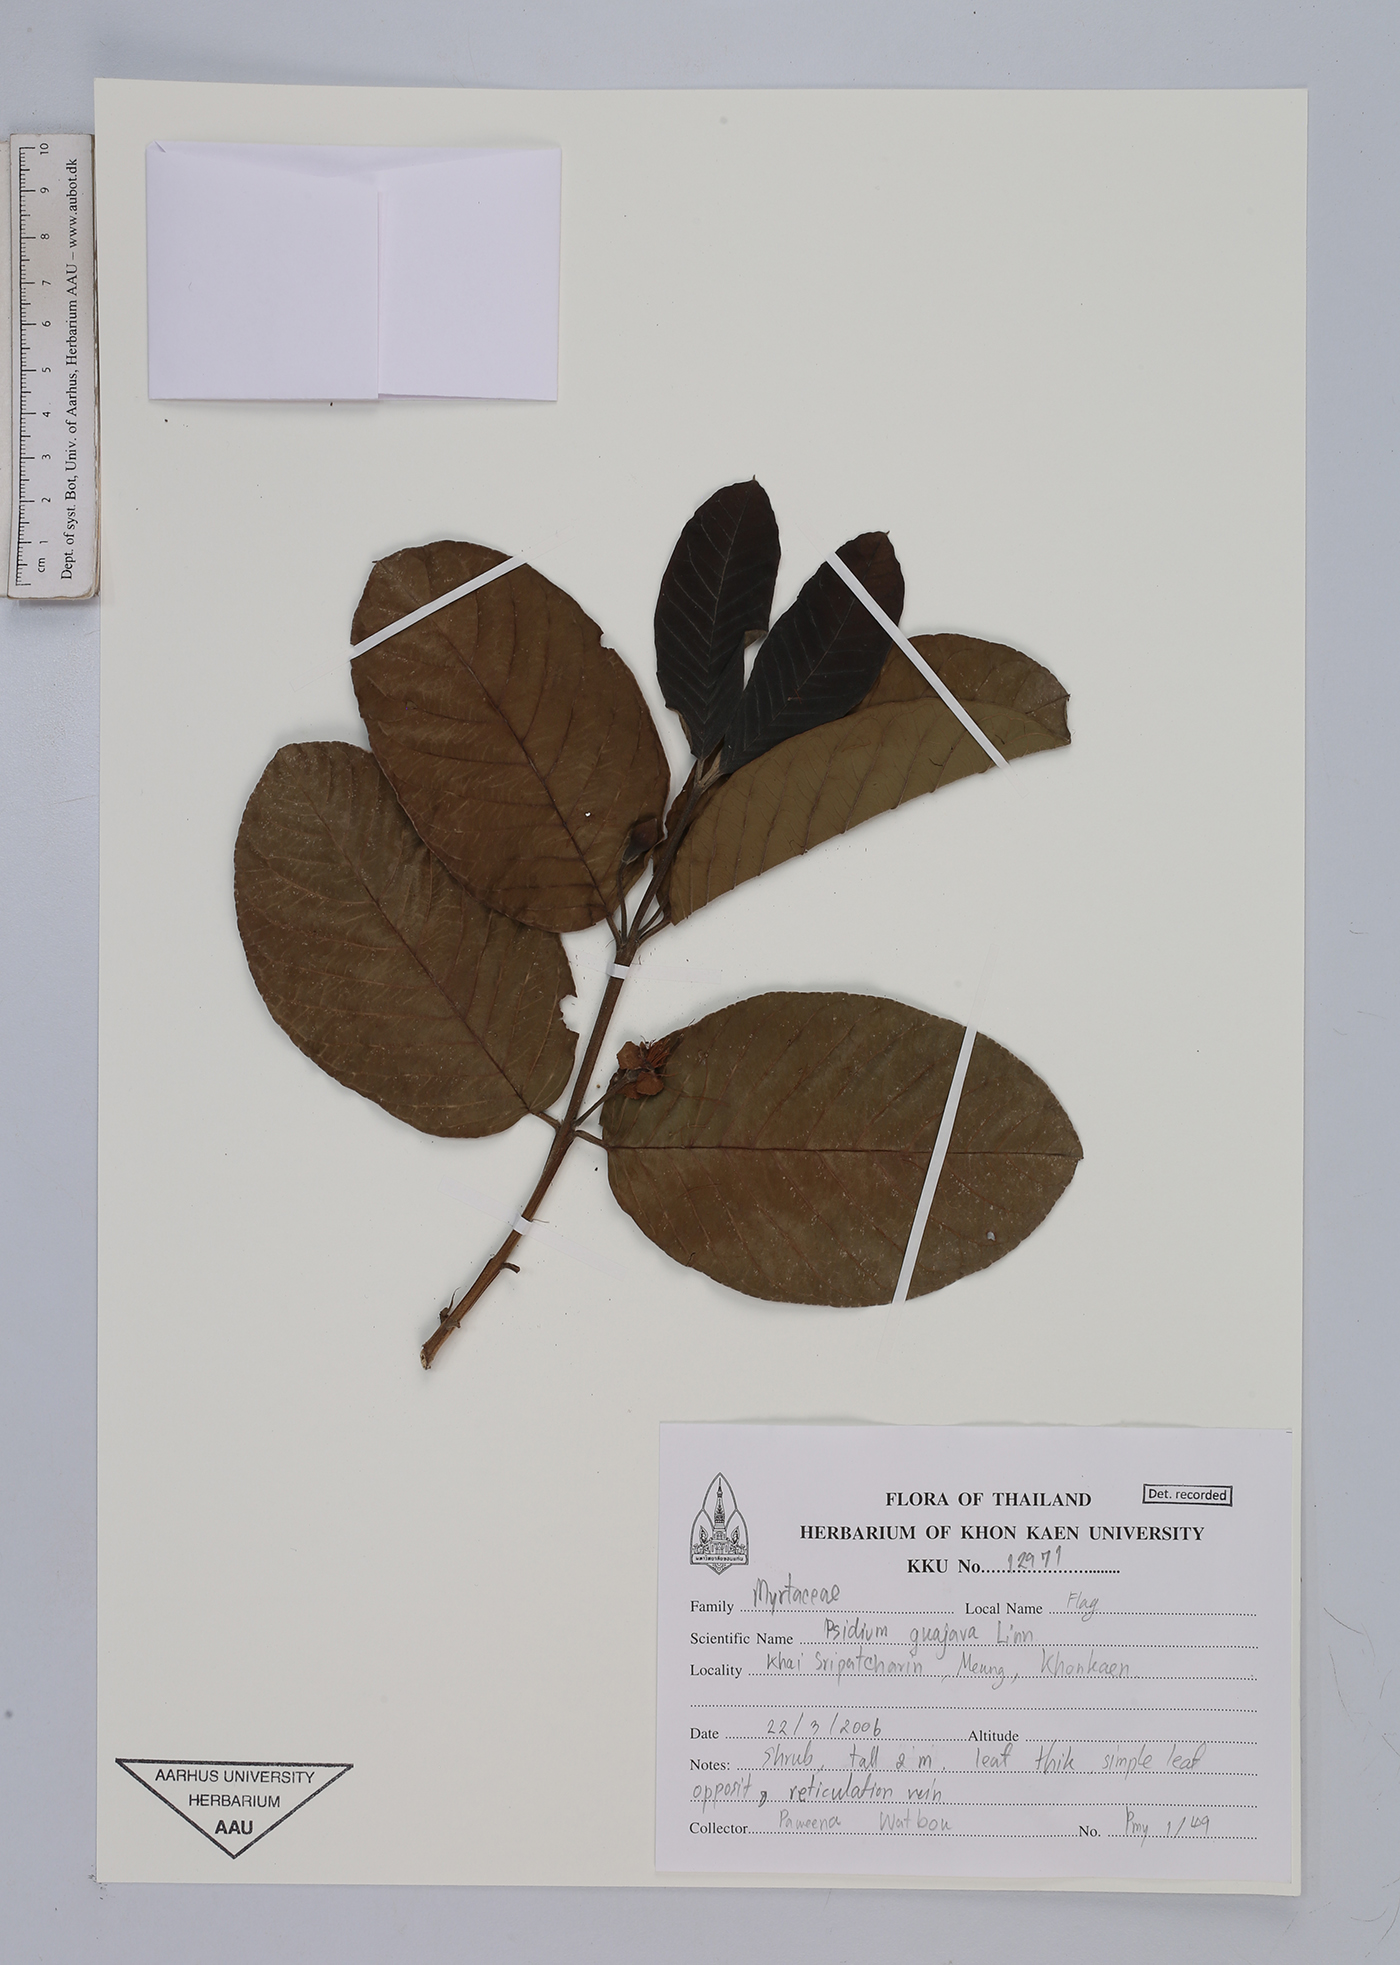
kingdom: Plantae
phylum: Tracheophyta
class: Magnoliopsida
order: Myrtales
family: Myrtaceae
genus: Psidium
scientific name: Psidium guajava
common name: Guava
